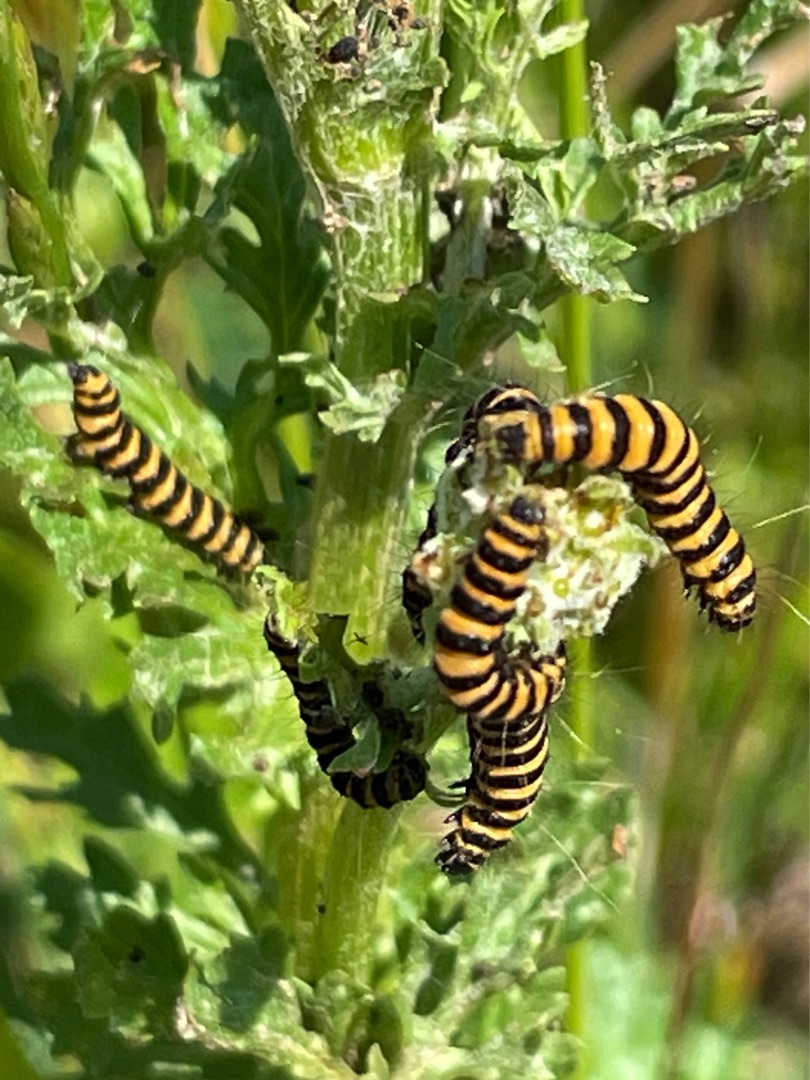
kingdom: Animalia
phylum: Arthropoda
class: Insecta
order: Lepidoptera
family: Erebidae
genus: Tyria
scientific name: Tyria jacobaeae
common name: Blodplet
